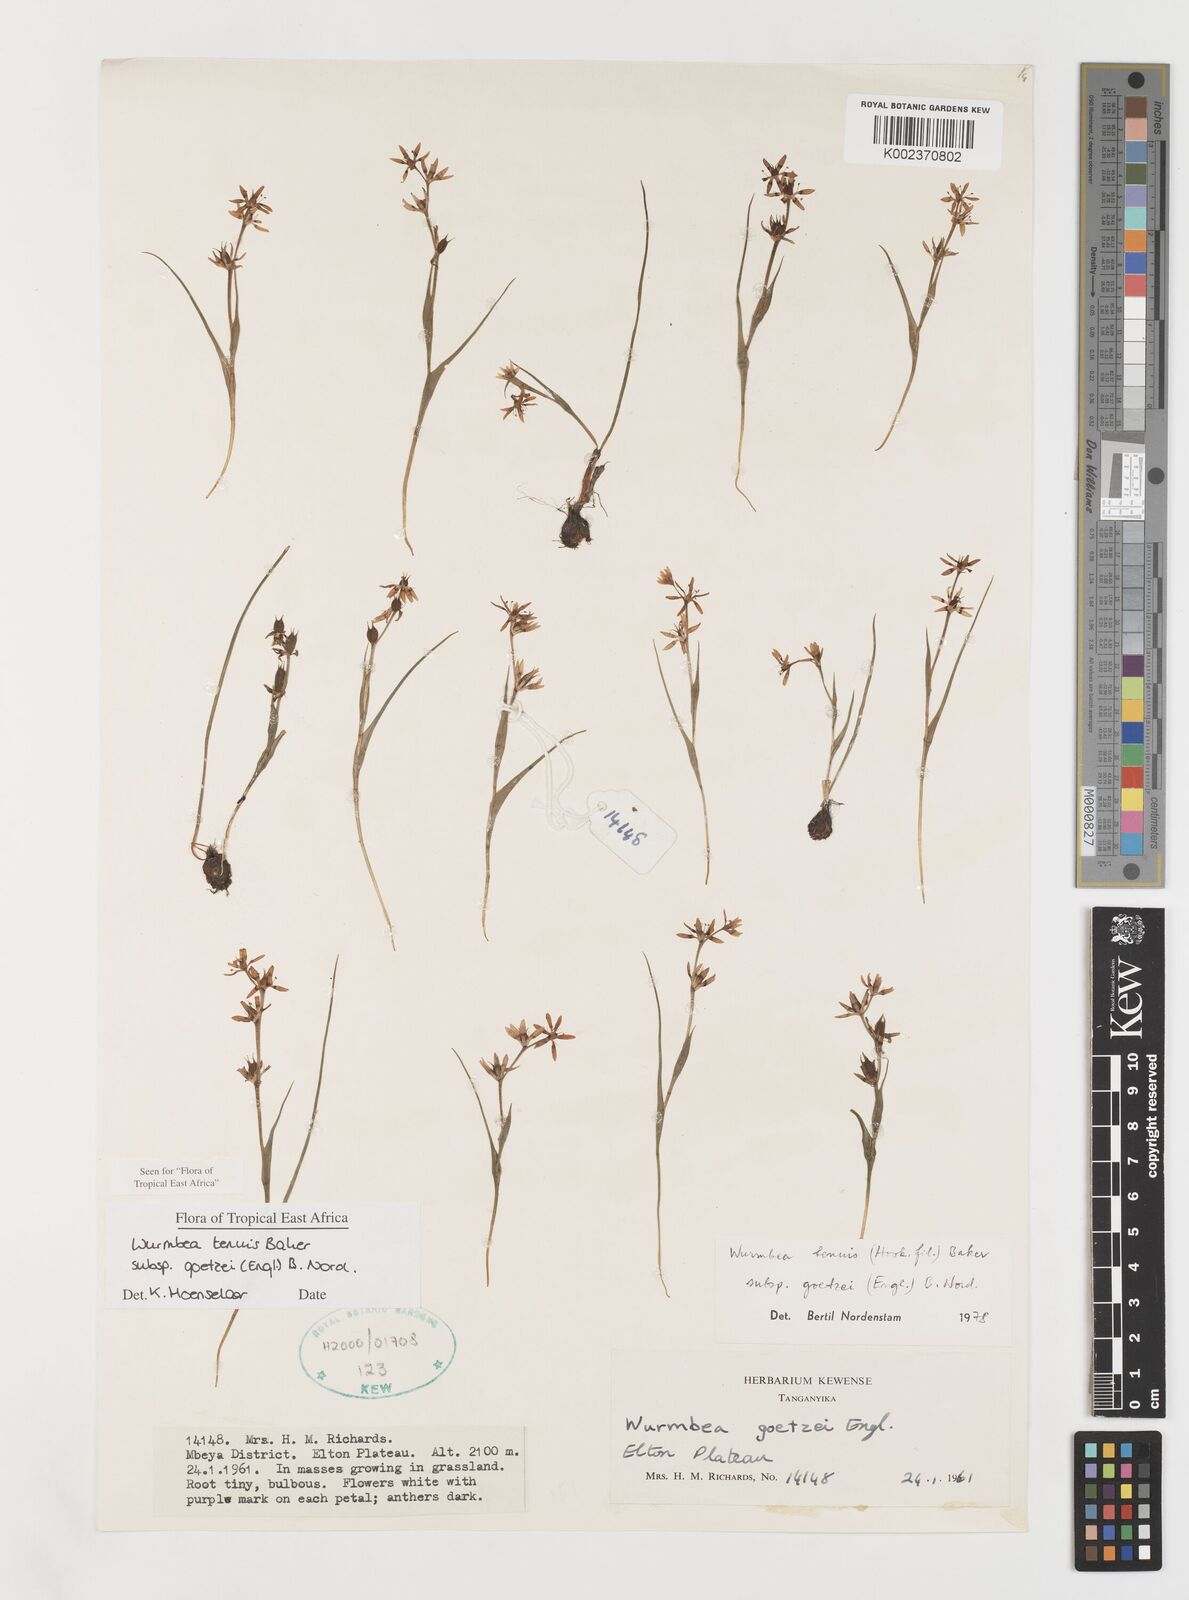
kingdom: Plantae
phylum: Tracheophyta
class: Liliopsida
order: Liliales
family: Colchicaceae
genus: Wurmbea
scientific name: Wurmbea tenuis
